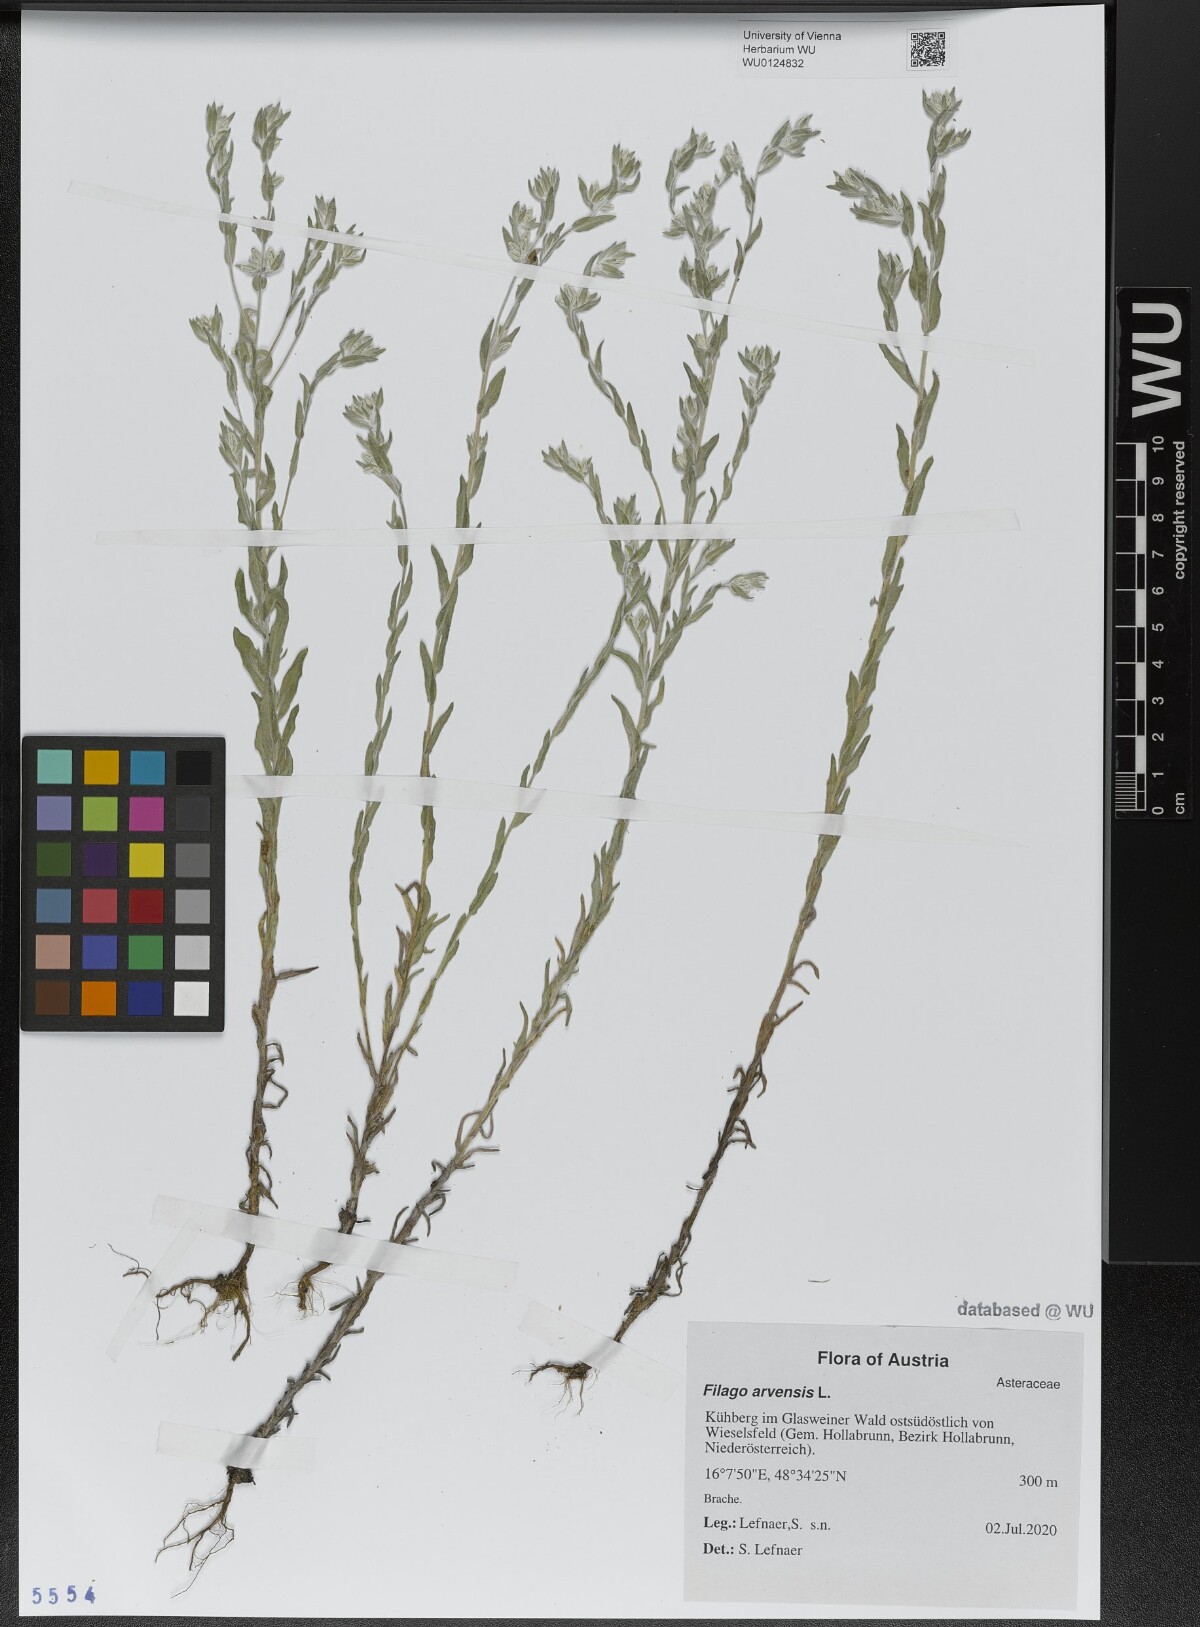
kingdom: Plantae
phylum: Tracheophyta
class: Magnoliopsida
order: Asterales
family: Asteraceae
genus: Filago
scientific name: Filago arvensis
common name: Field cudweed
